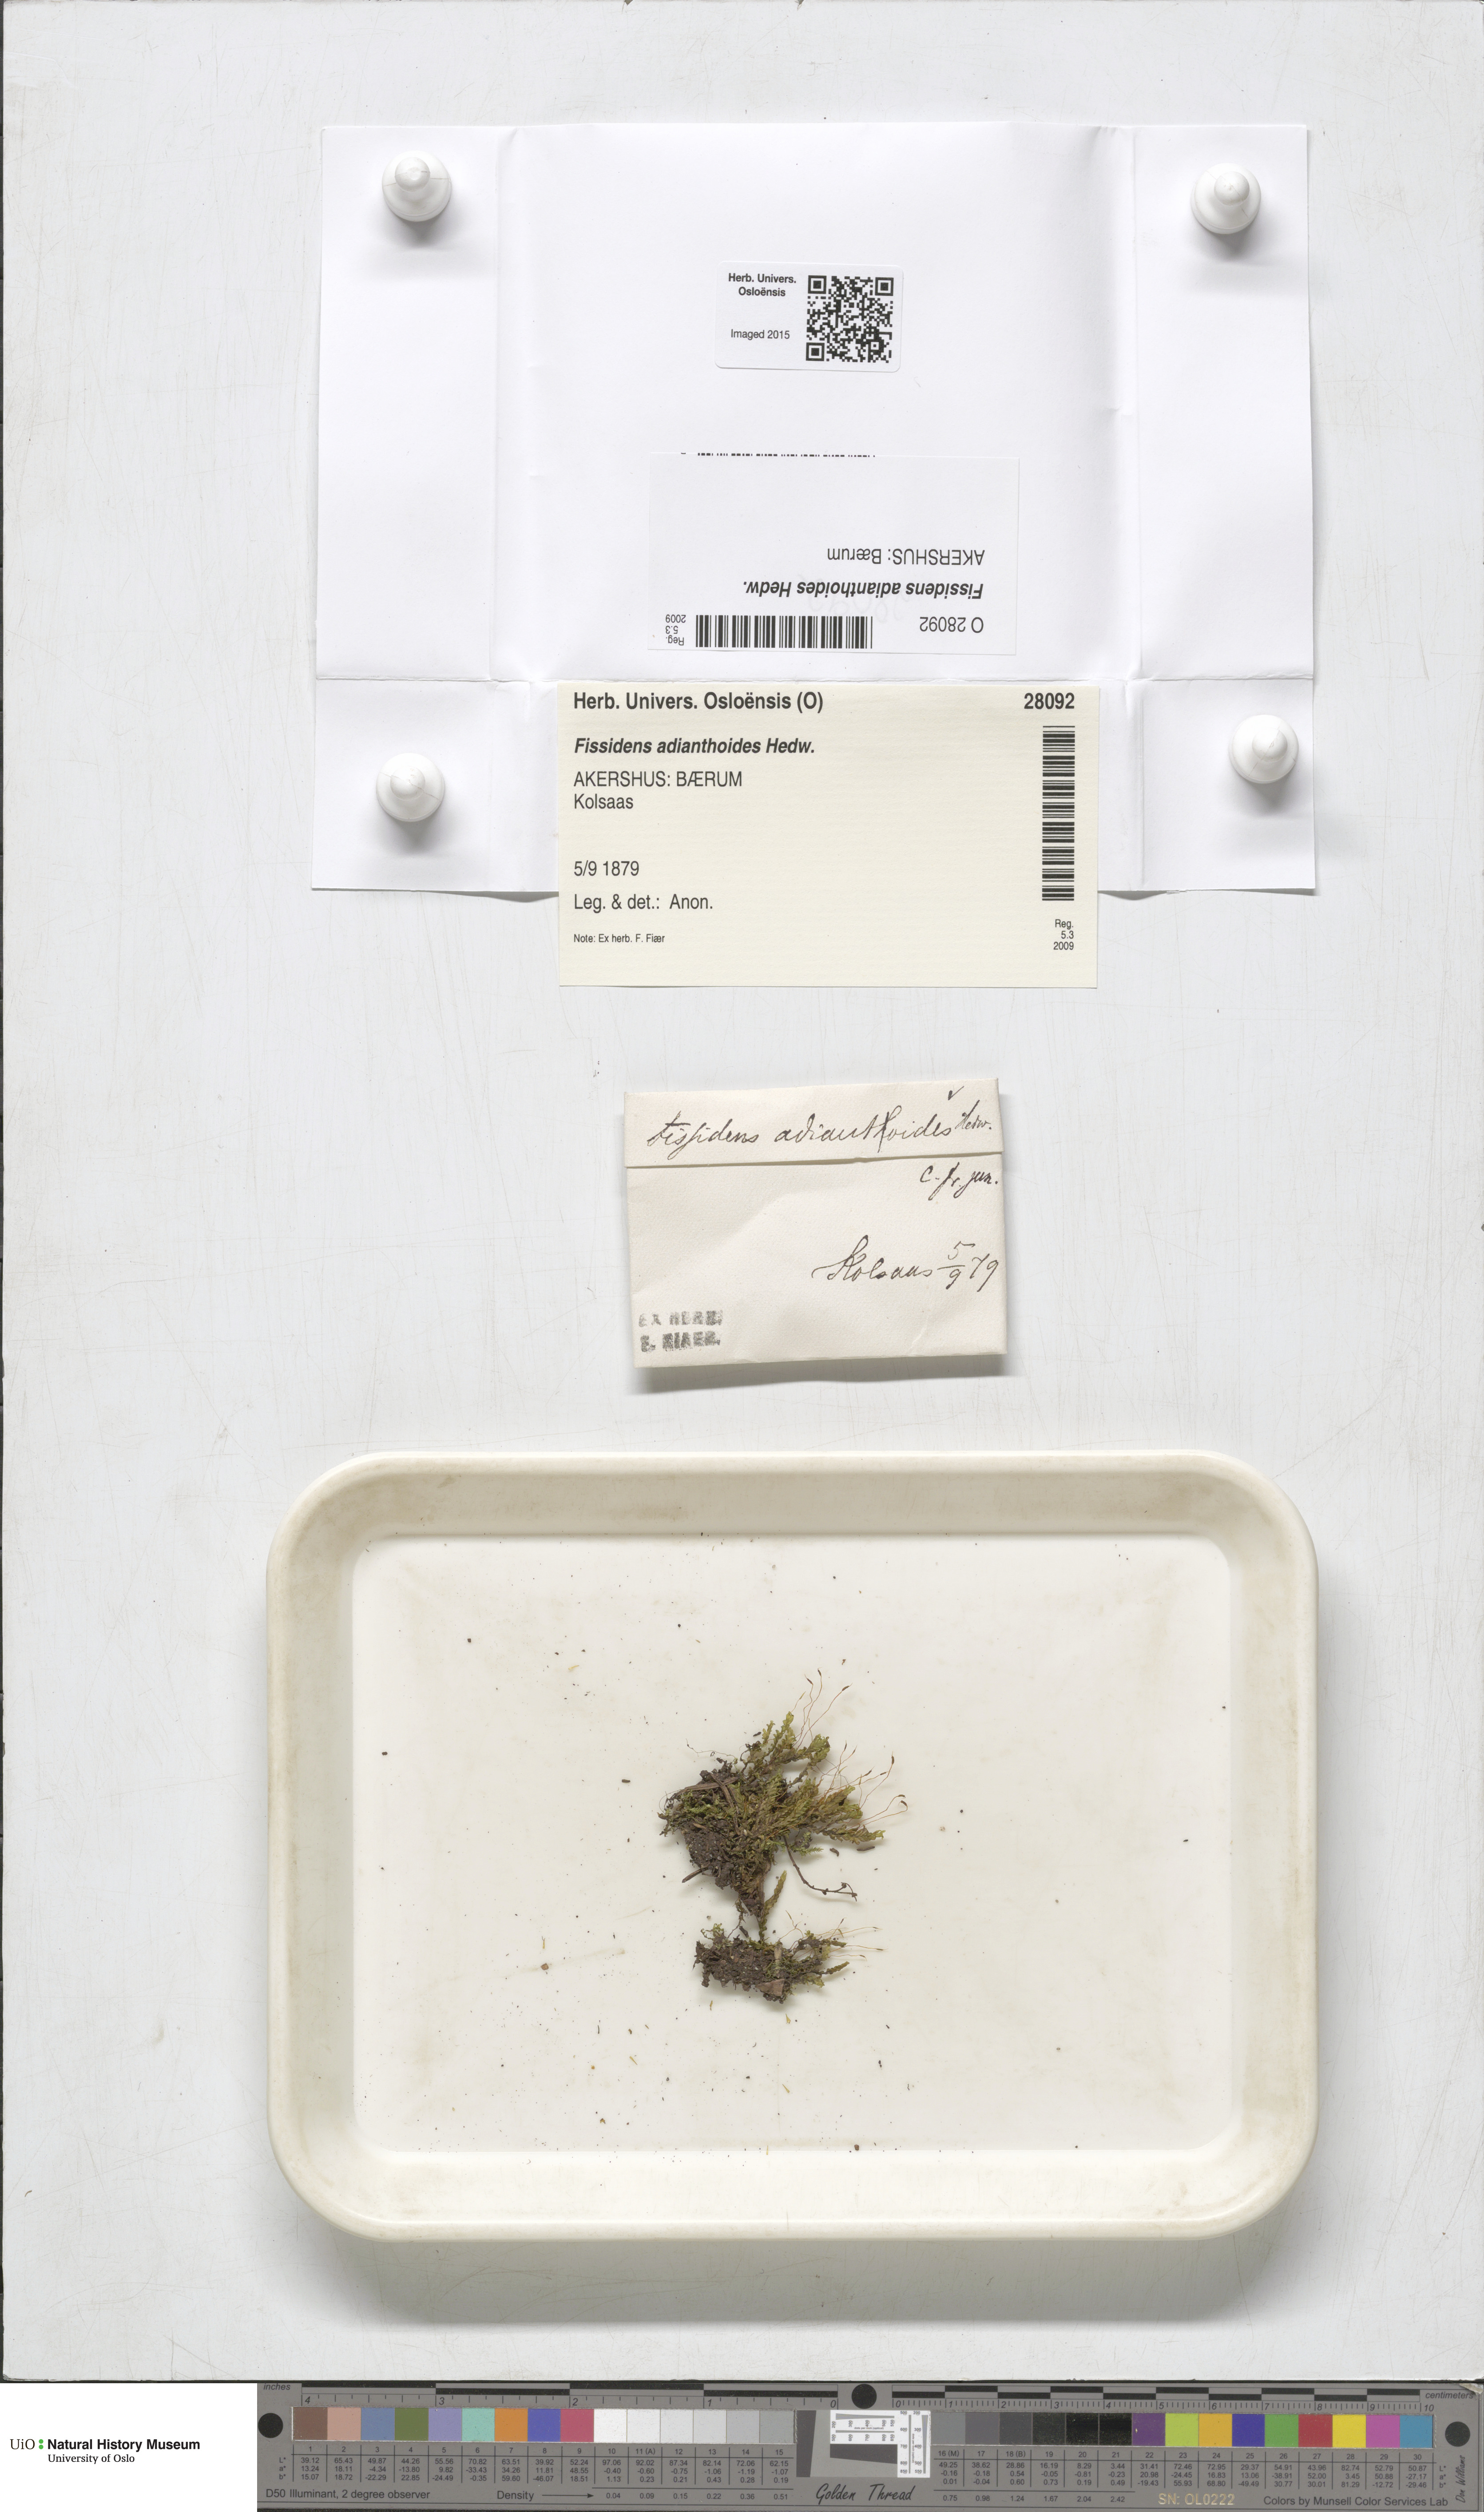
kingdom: Plantae
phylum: Bryophyta
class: Bryopsida
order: Dicranales
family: Fissidentaceae
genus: Fissidens
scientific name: Fissidens adianthoides
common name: Maidenhair pocket moss
